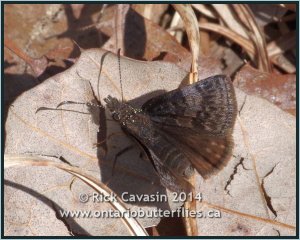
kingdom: Animalia
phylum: Arthropoda
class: Insecta
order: Lepidoptera
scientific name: Lepidoptera
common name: Butterflies
